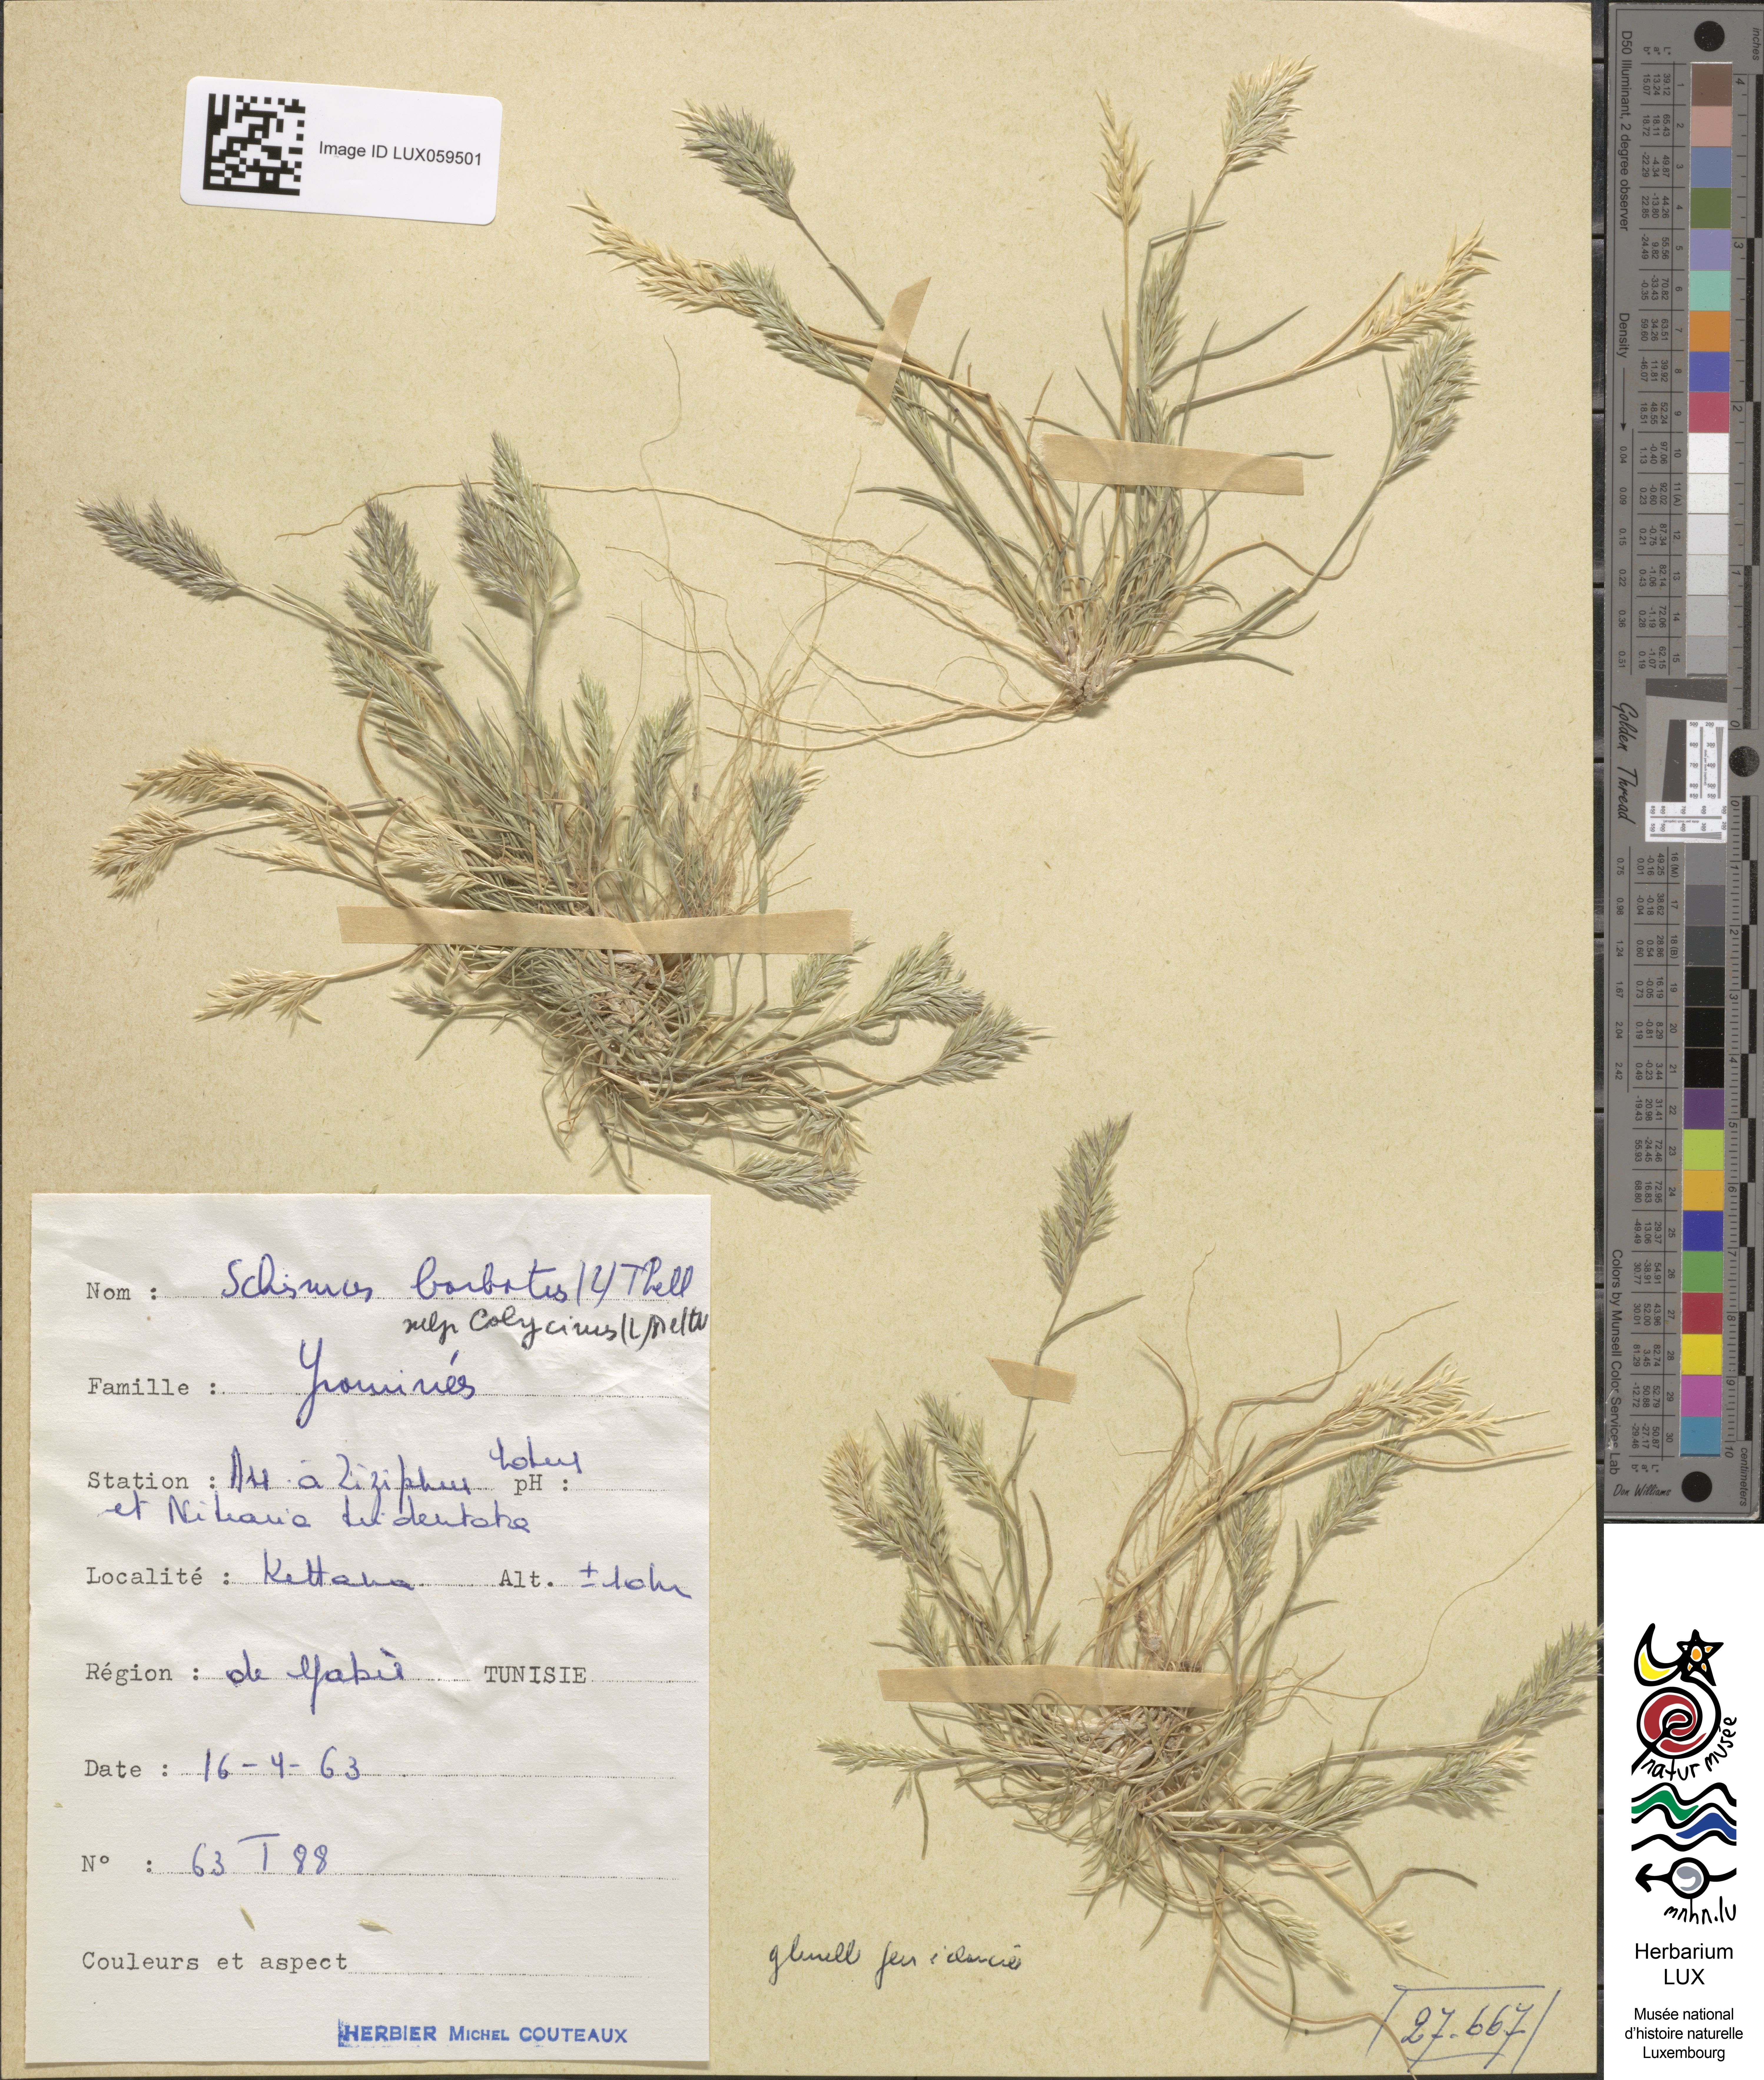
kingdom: Plantae
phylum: Tracheophyta
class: Liliopsida
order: Poales
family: Poaceae
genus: Schismus
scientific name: Schismus barbatus
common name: Kelch-grass
